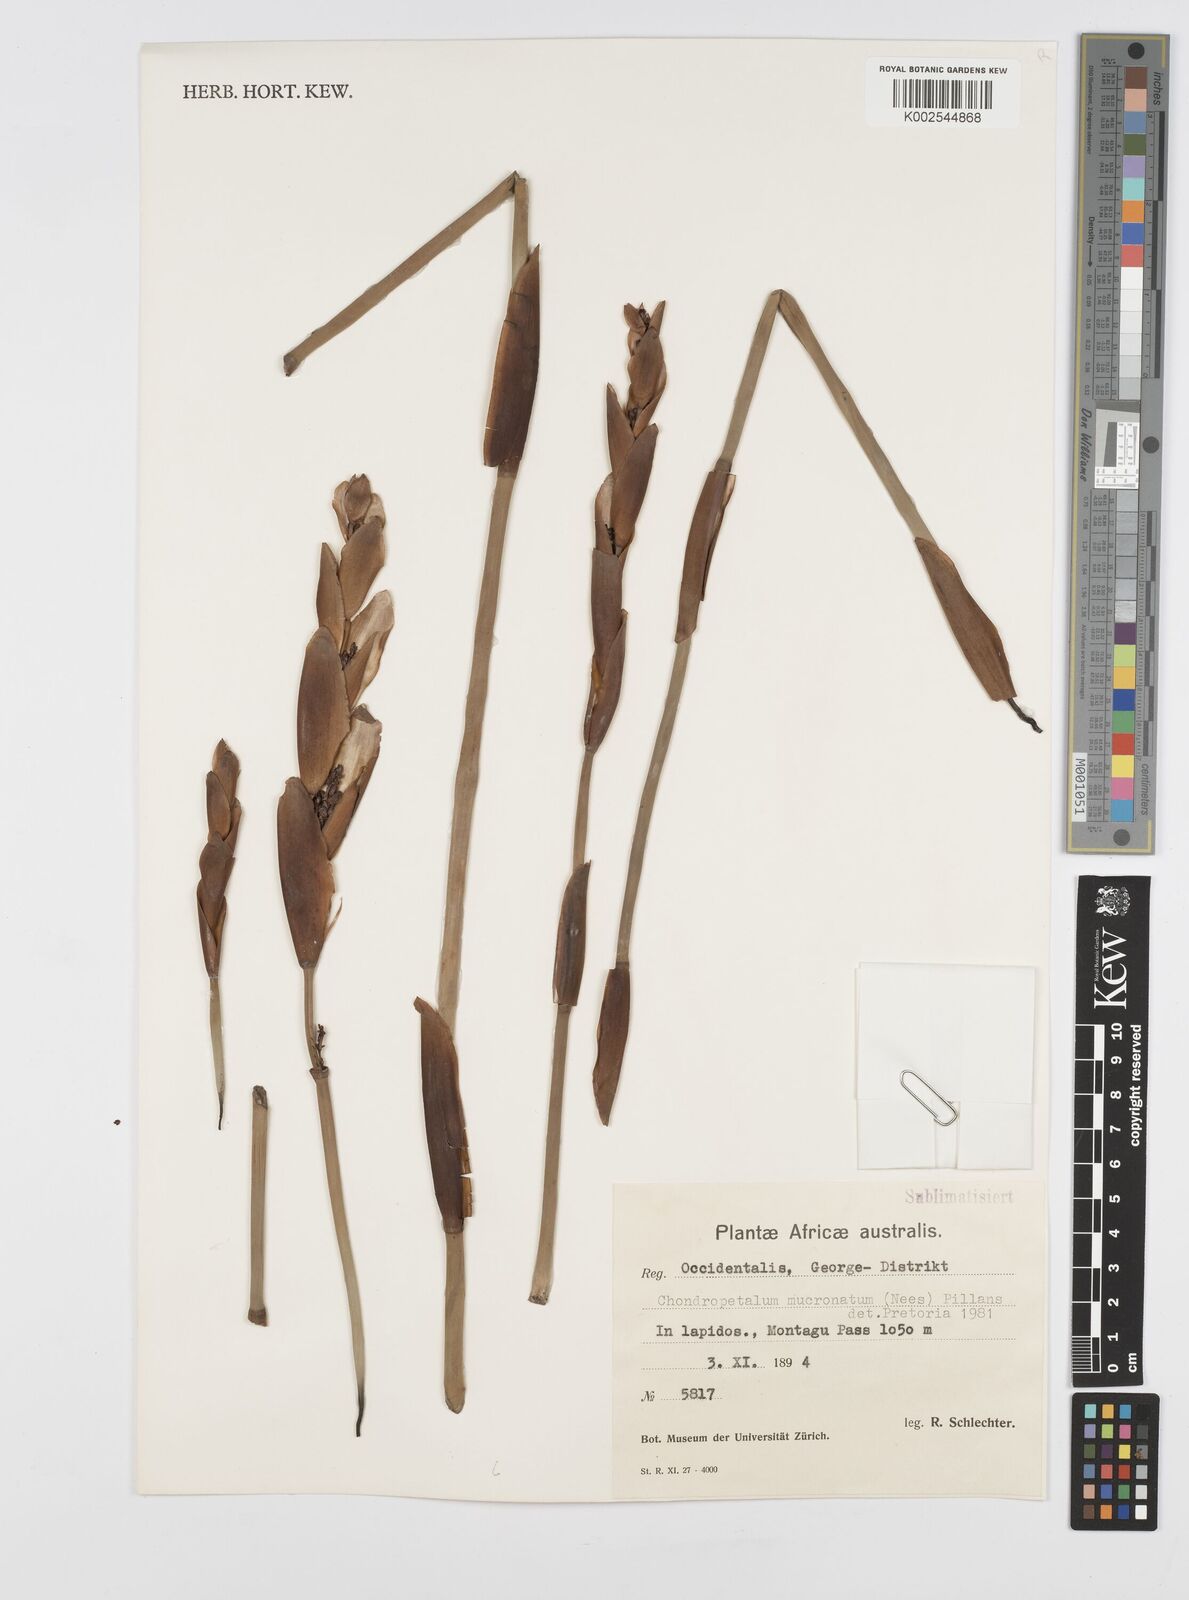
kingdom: Plantae
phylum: Tracheophyta
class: Liliopsida
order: Poales
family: Restionaceae
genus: Elegia
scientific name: Elegia mucronata
